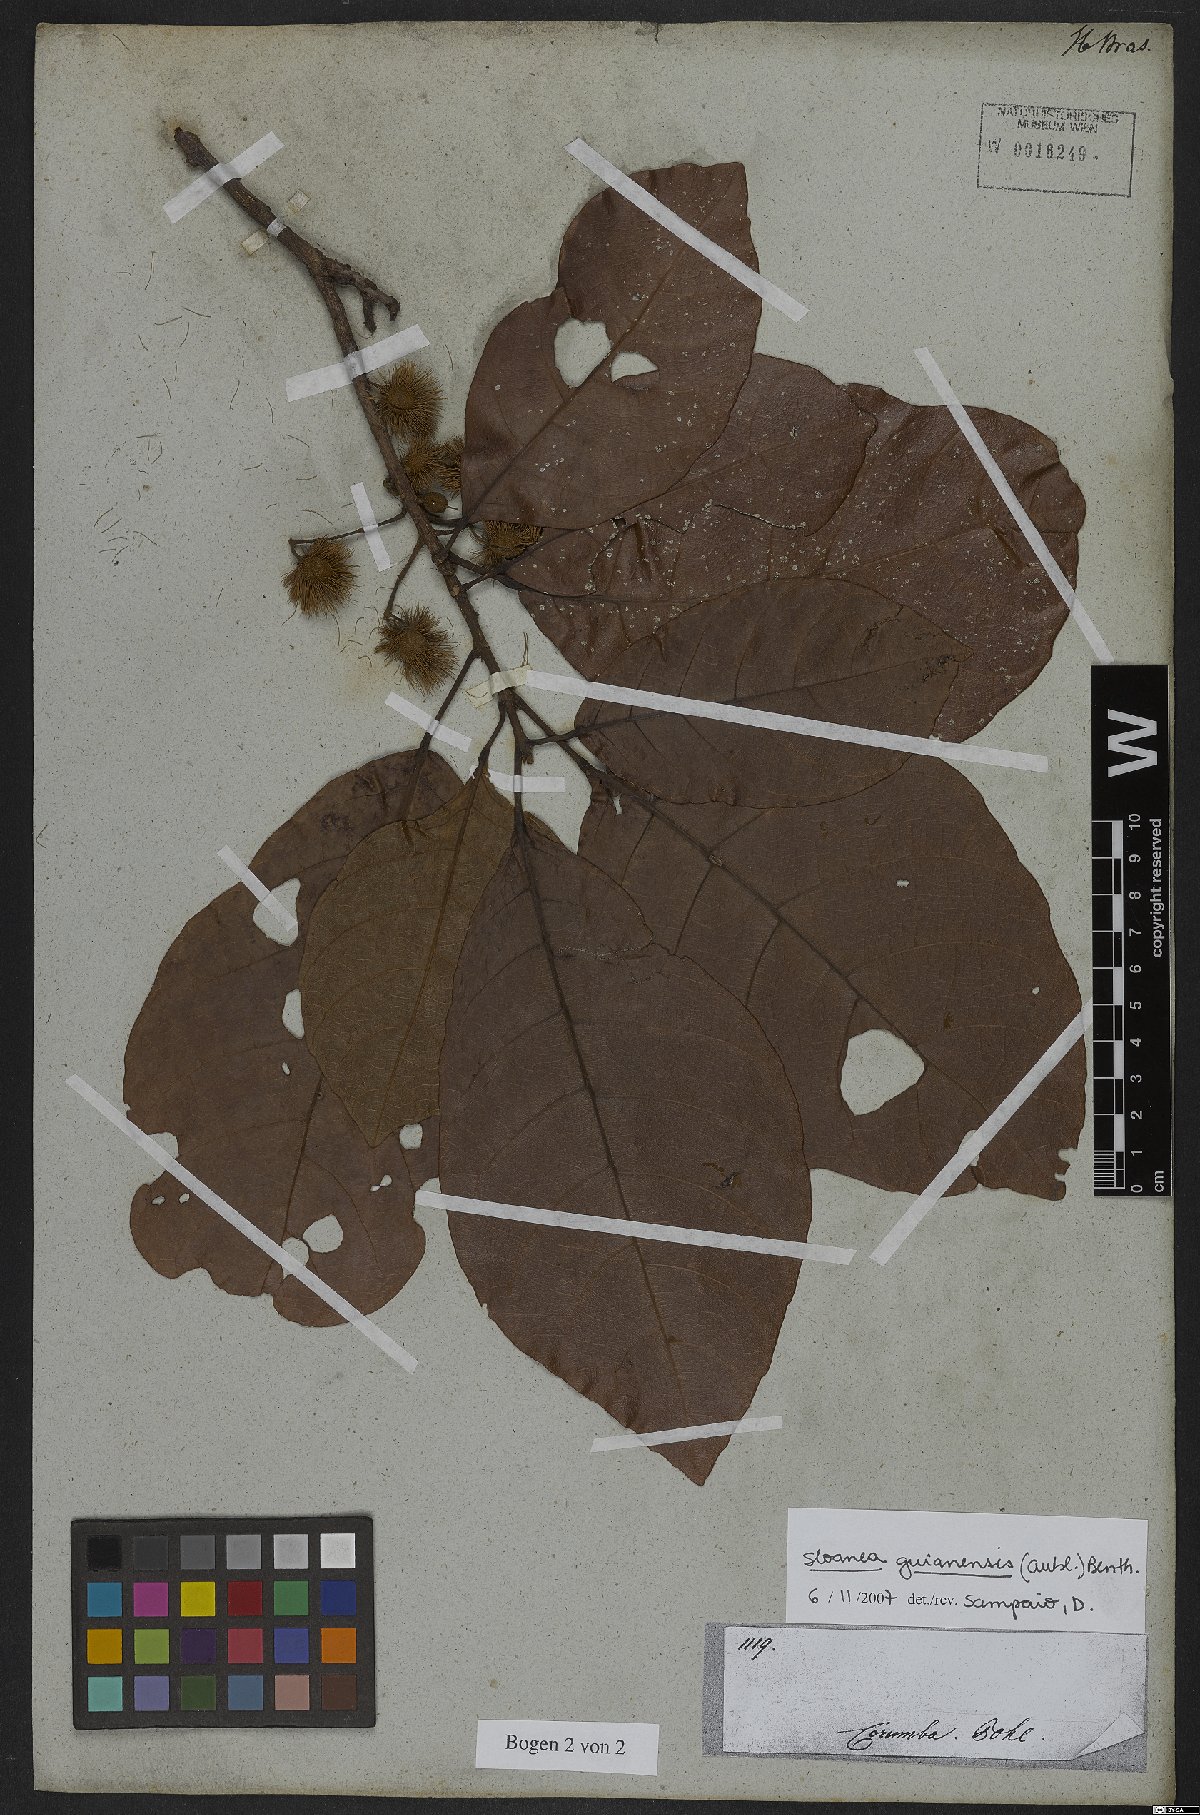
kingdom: Plantae
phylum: Tracheophyta
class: Magnoliopsida
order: Oxalidales
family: Elaeocarpaceae
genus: Sloanea
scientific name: Sloanea guianensis
